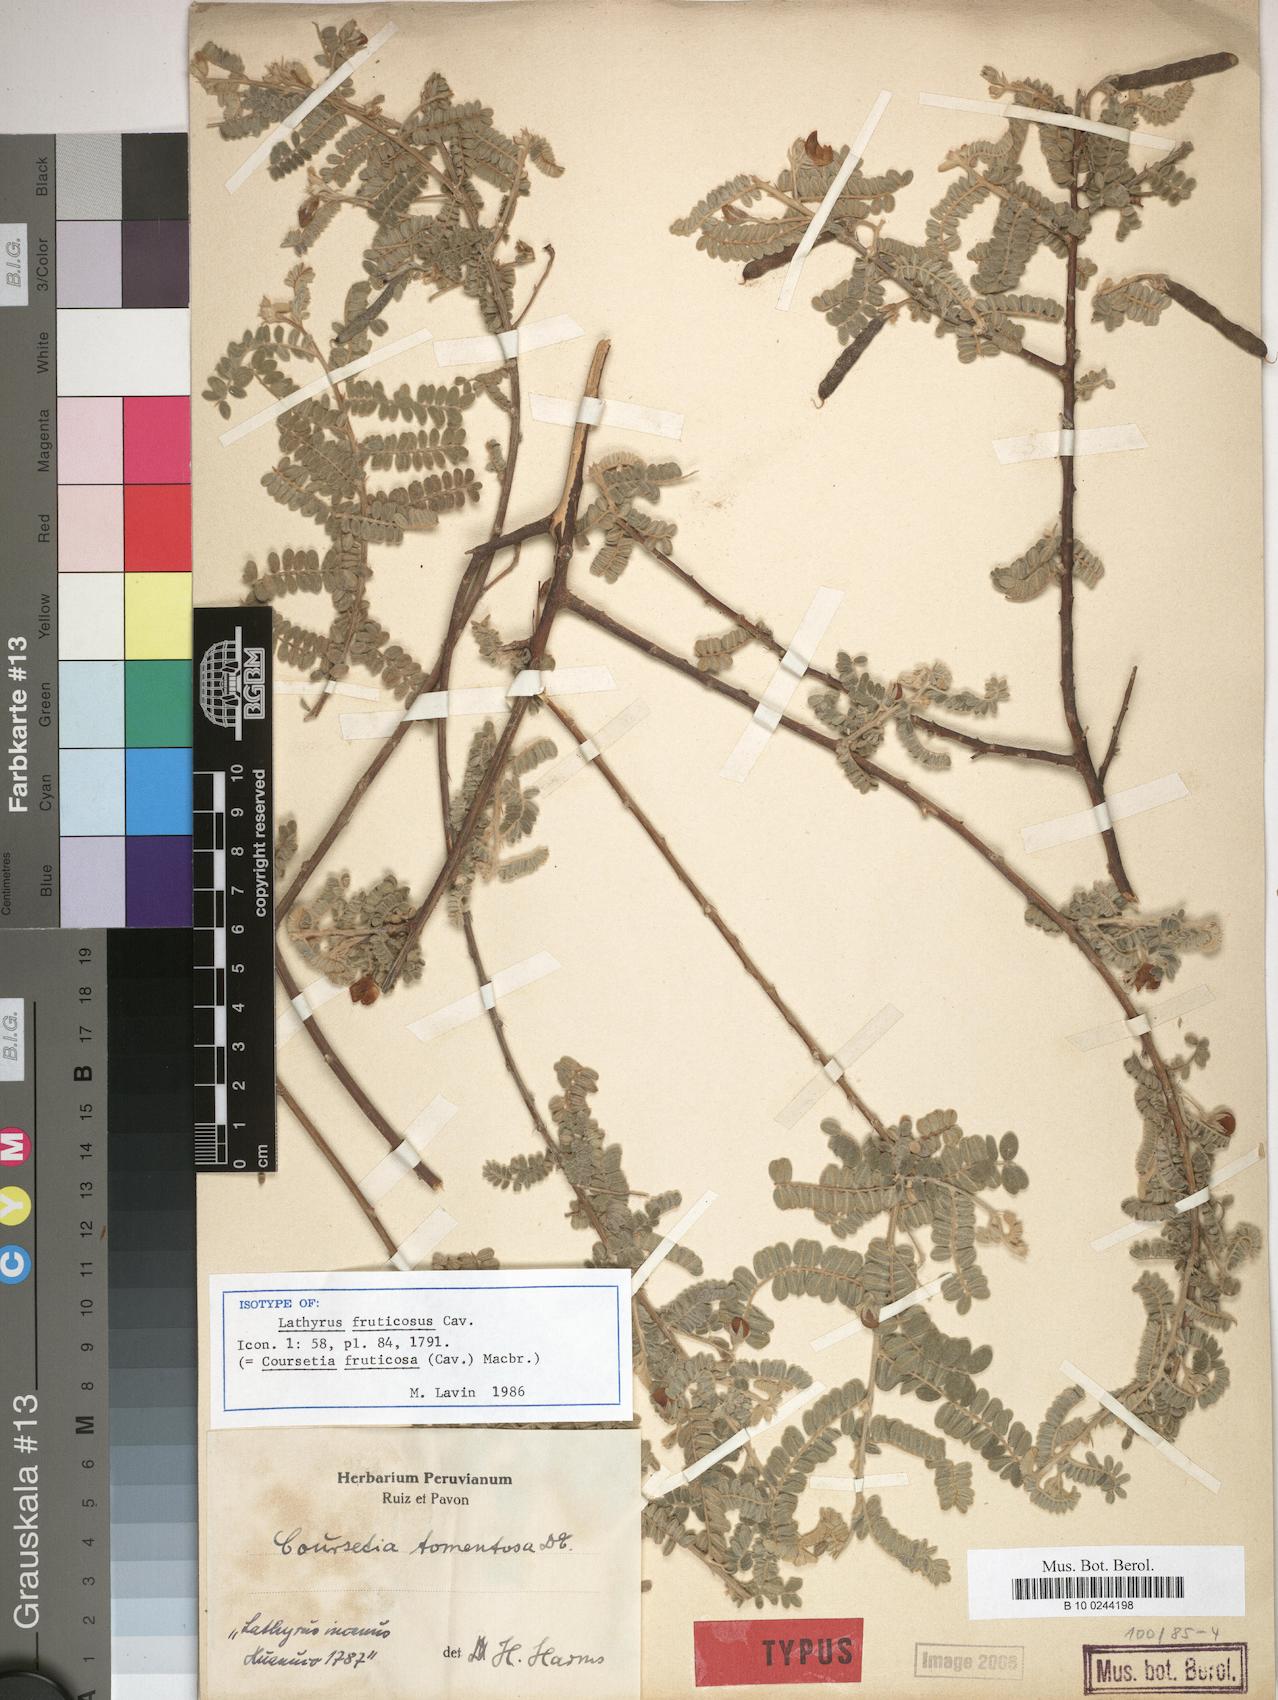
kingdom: Plantae
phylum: Tracheophyta
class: Magnoliopsida
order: Fabales
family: Fabaceae
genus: Coursetia
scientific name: Coursetia fruticosa
